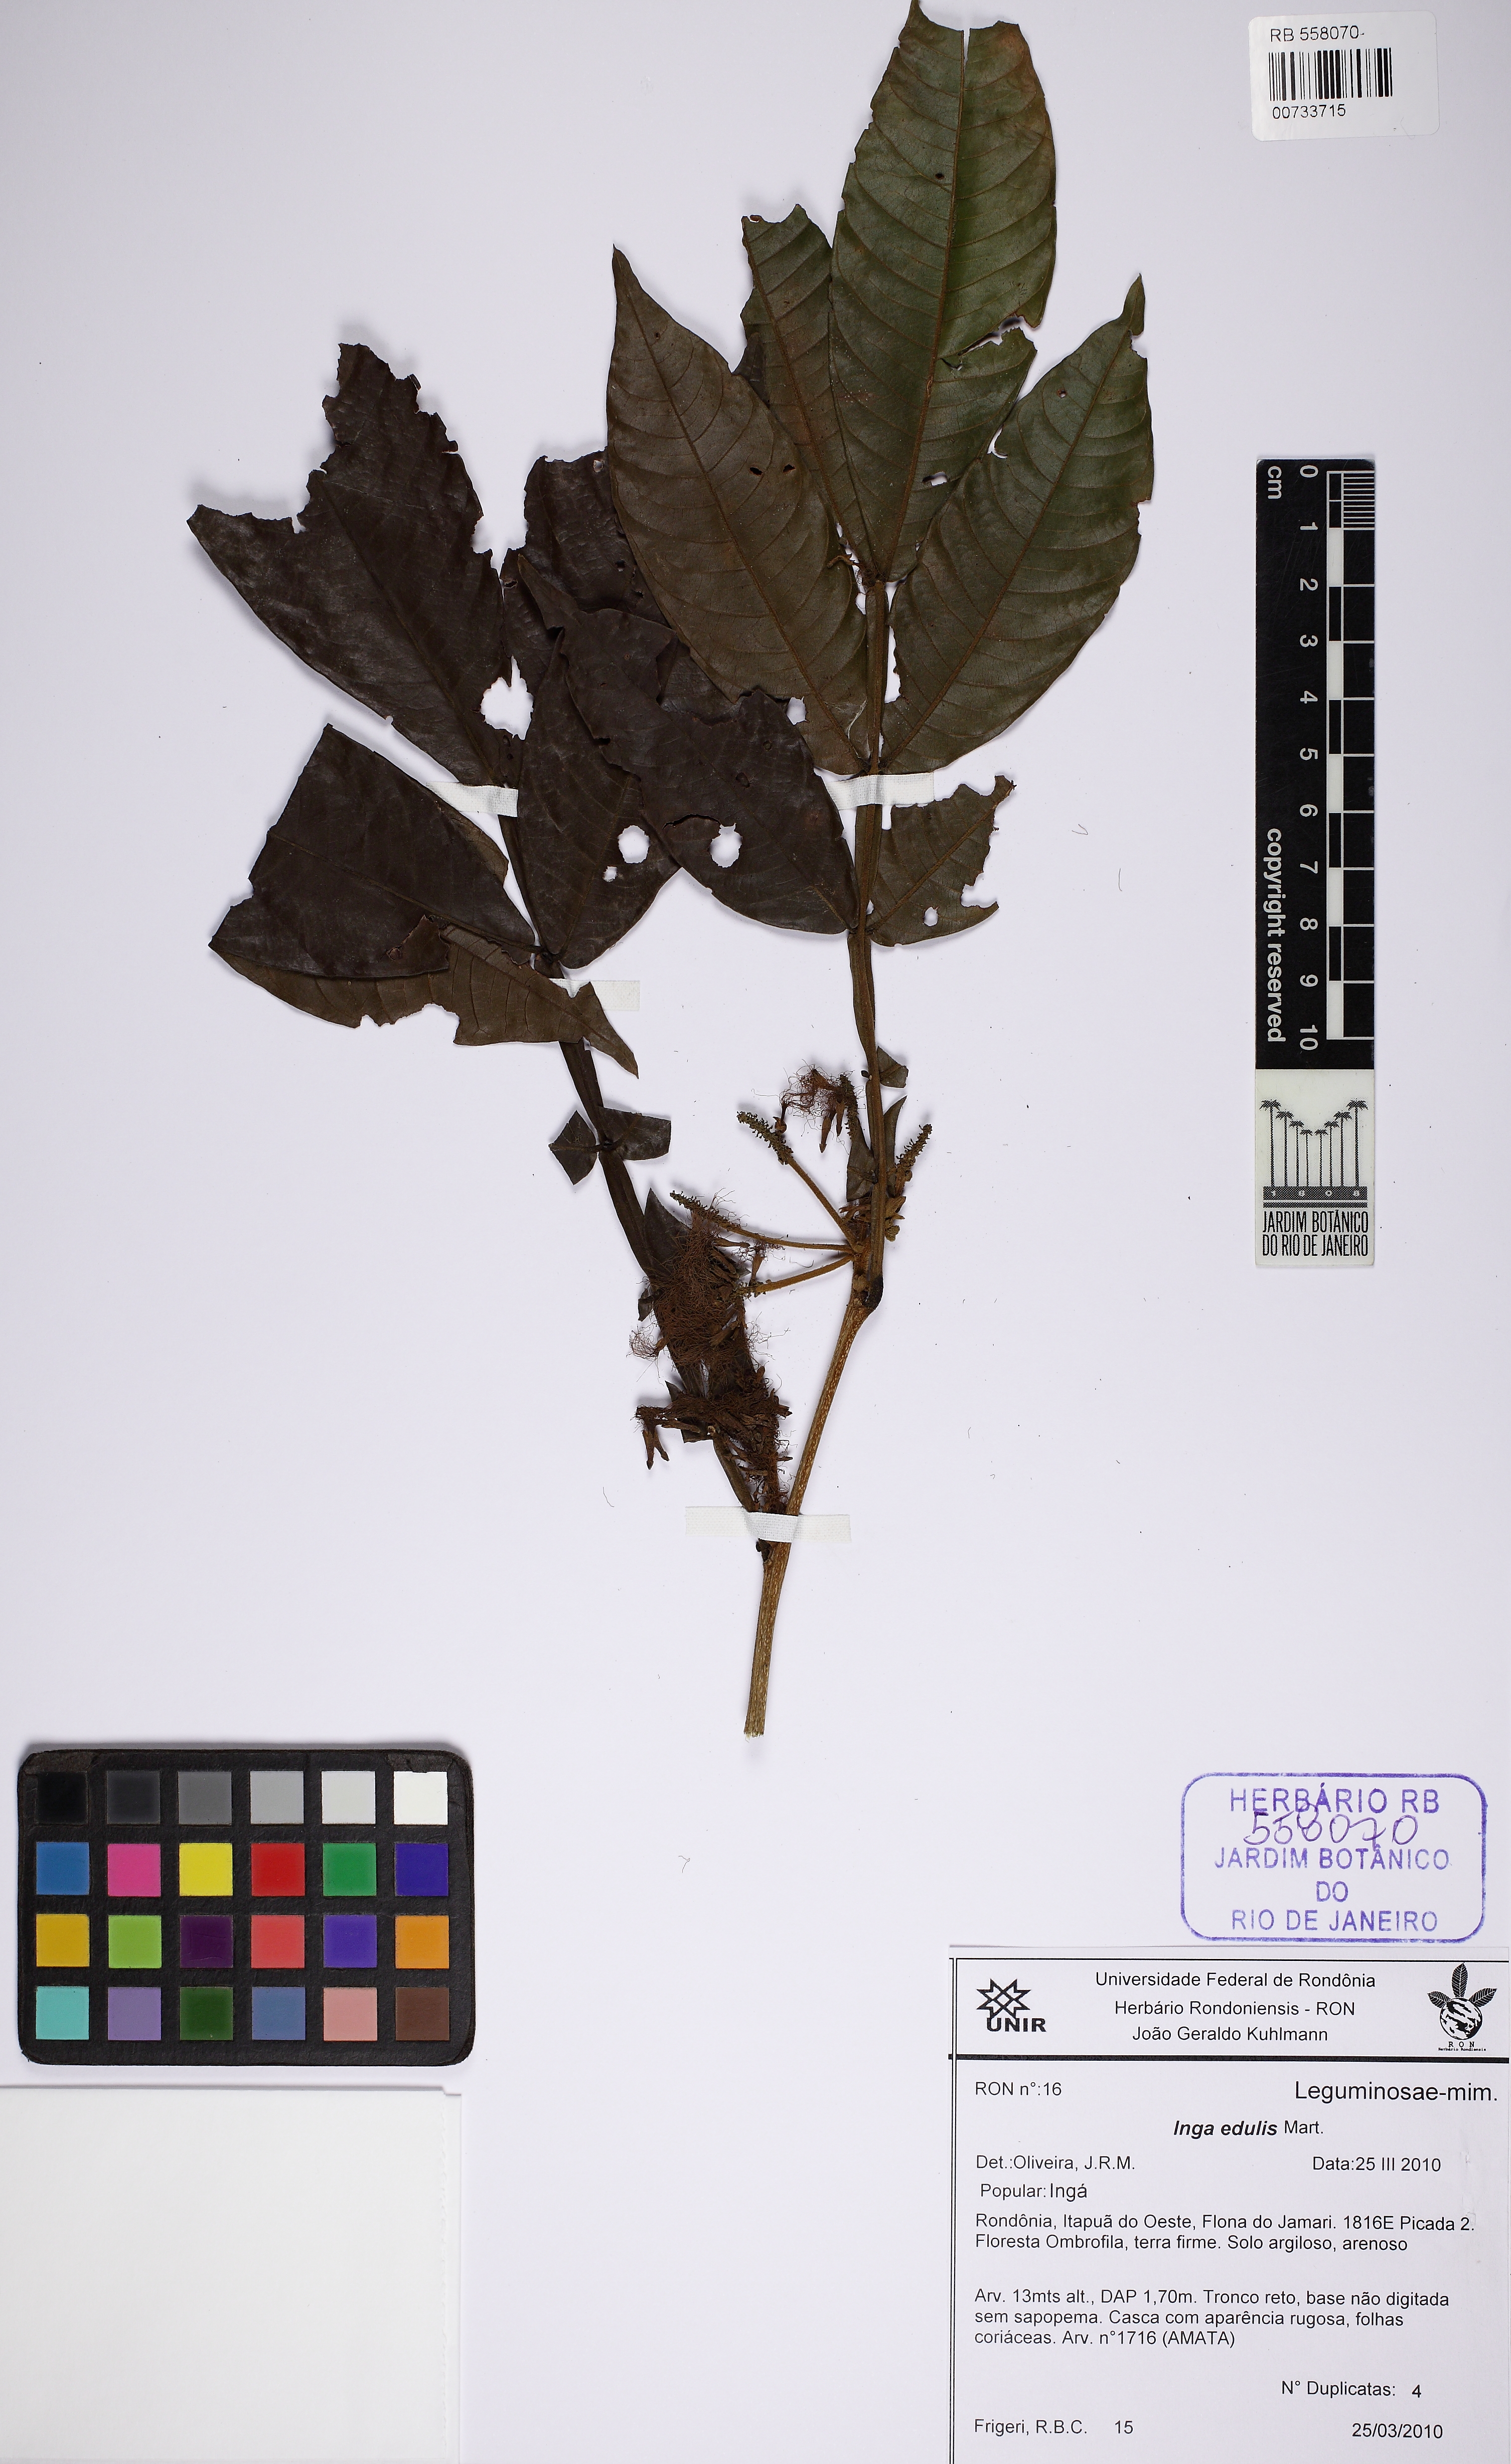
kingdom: Plantae
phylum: Tracheophyta
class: Magnoliopsida
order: Fabales
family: Fabaceae
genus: Inga
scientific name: Inga edulis
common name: Ice cream bean
